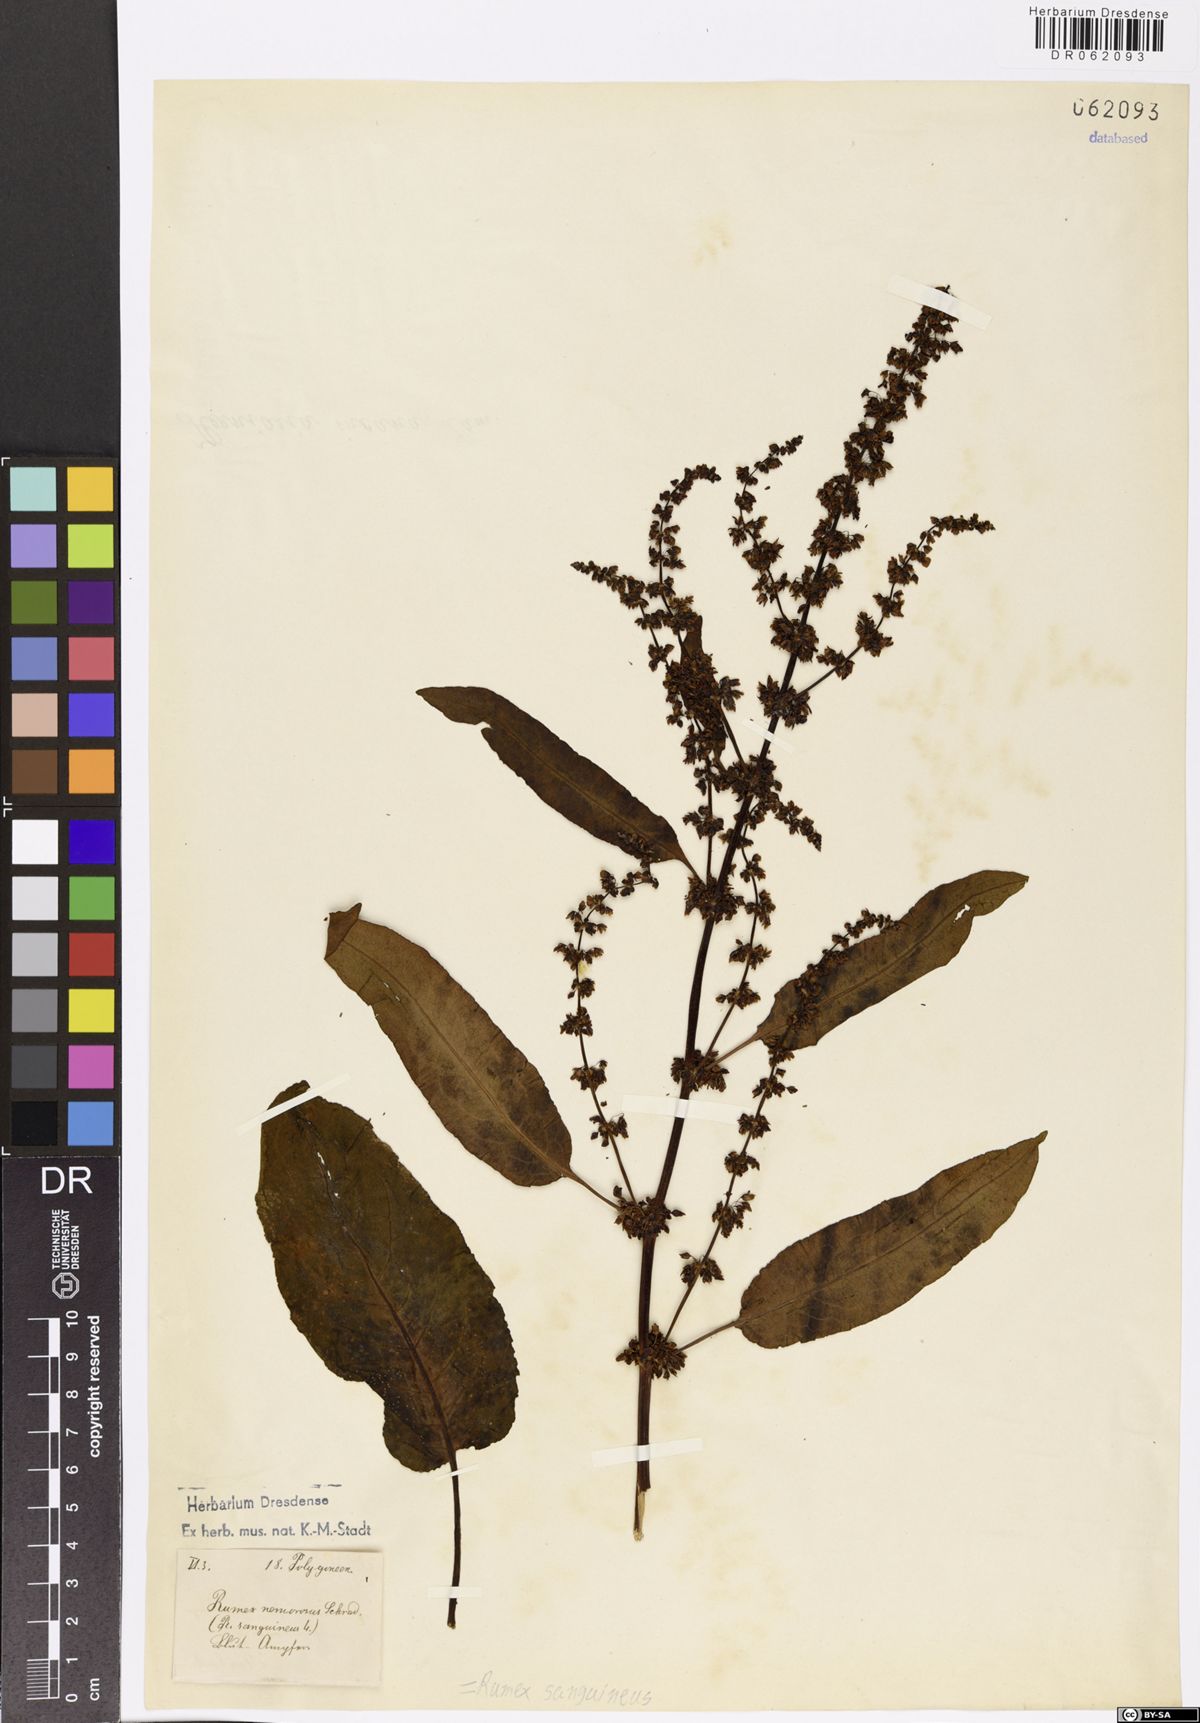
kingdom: Plantae
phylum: Tracheophyta
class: Magnoliopsida
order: Caryophyllales
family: Polygonaceae
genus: Rumex
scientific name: Rumex sanguineus
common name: Wood dock
